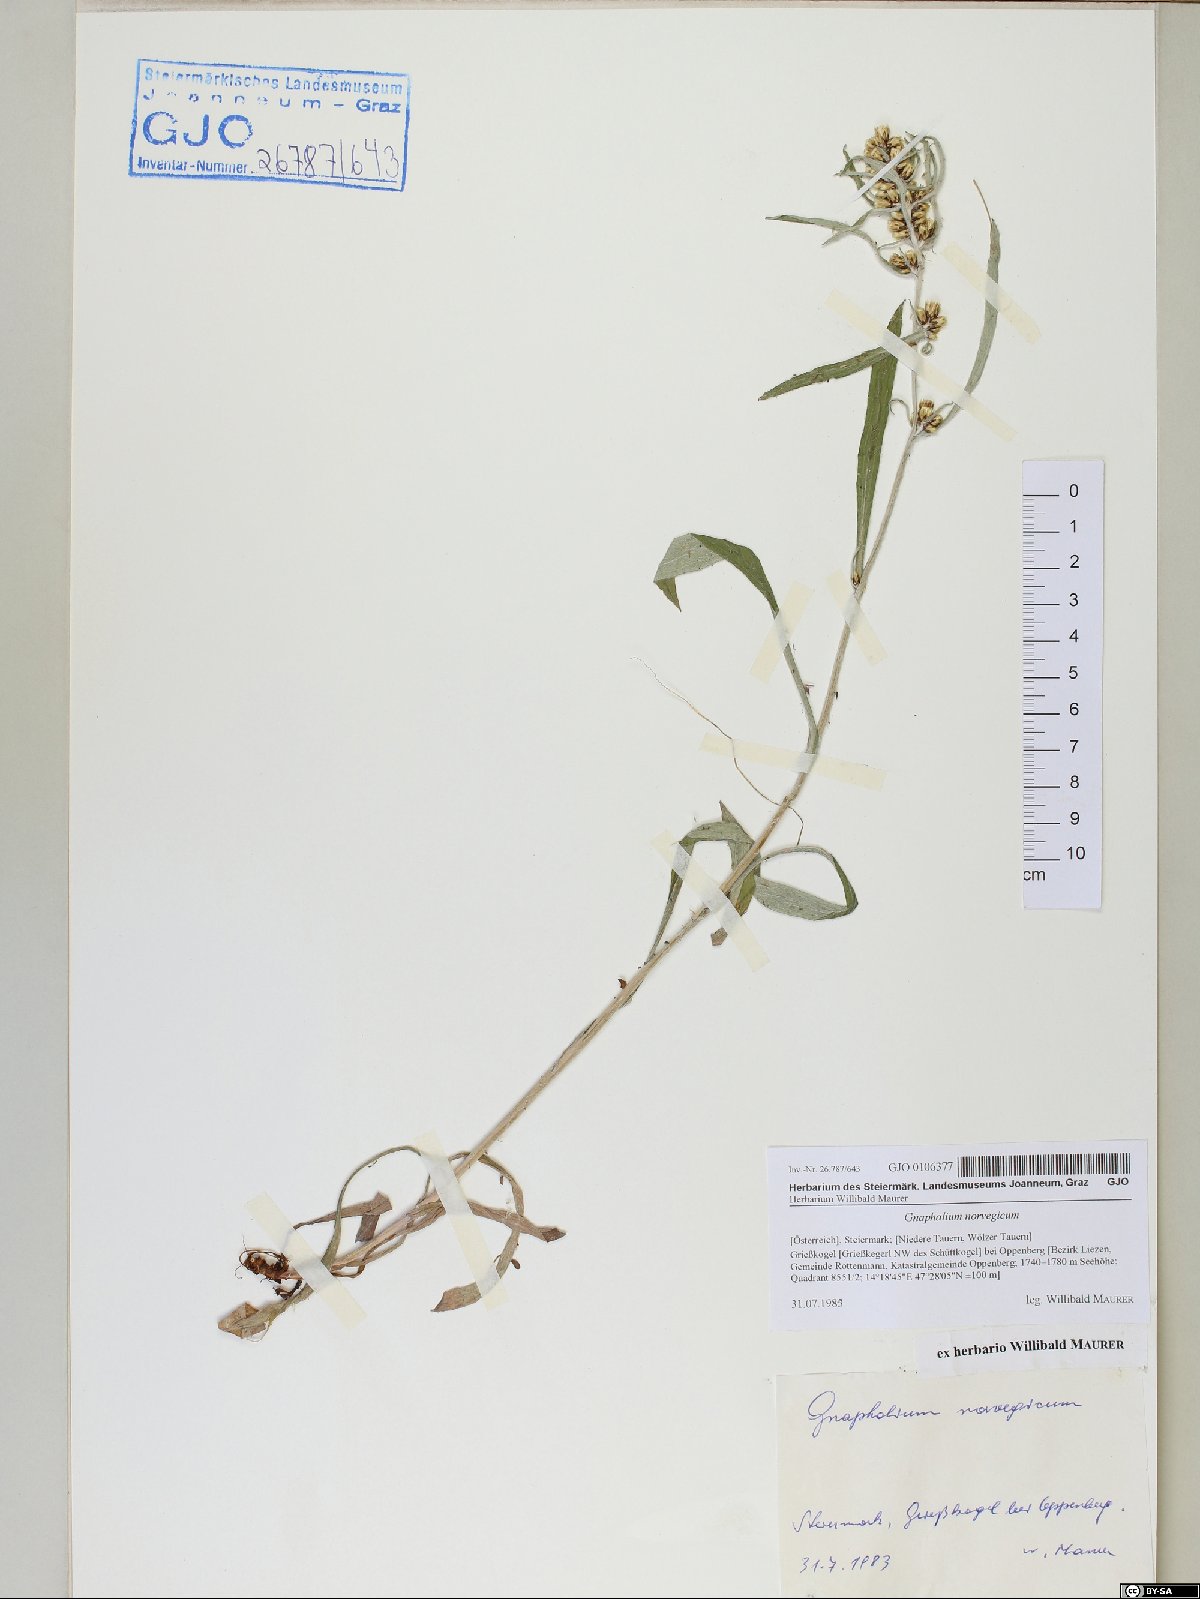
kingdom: Plantae
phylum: Tracheophyta
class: Magnoliopsida
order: Asterales
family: Asteraceae
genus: Omalotheca
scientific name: Omalotheca norvegica
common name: Norwegian arctic-cudweed
